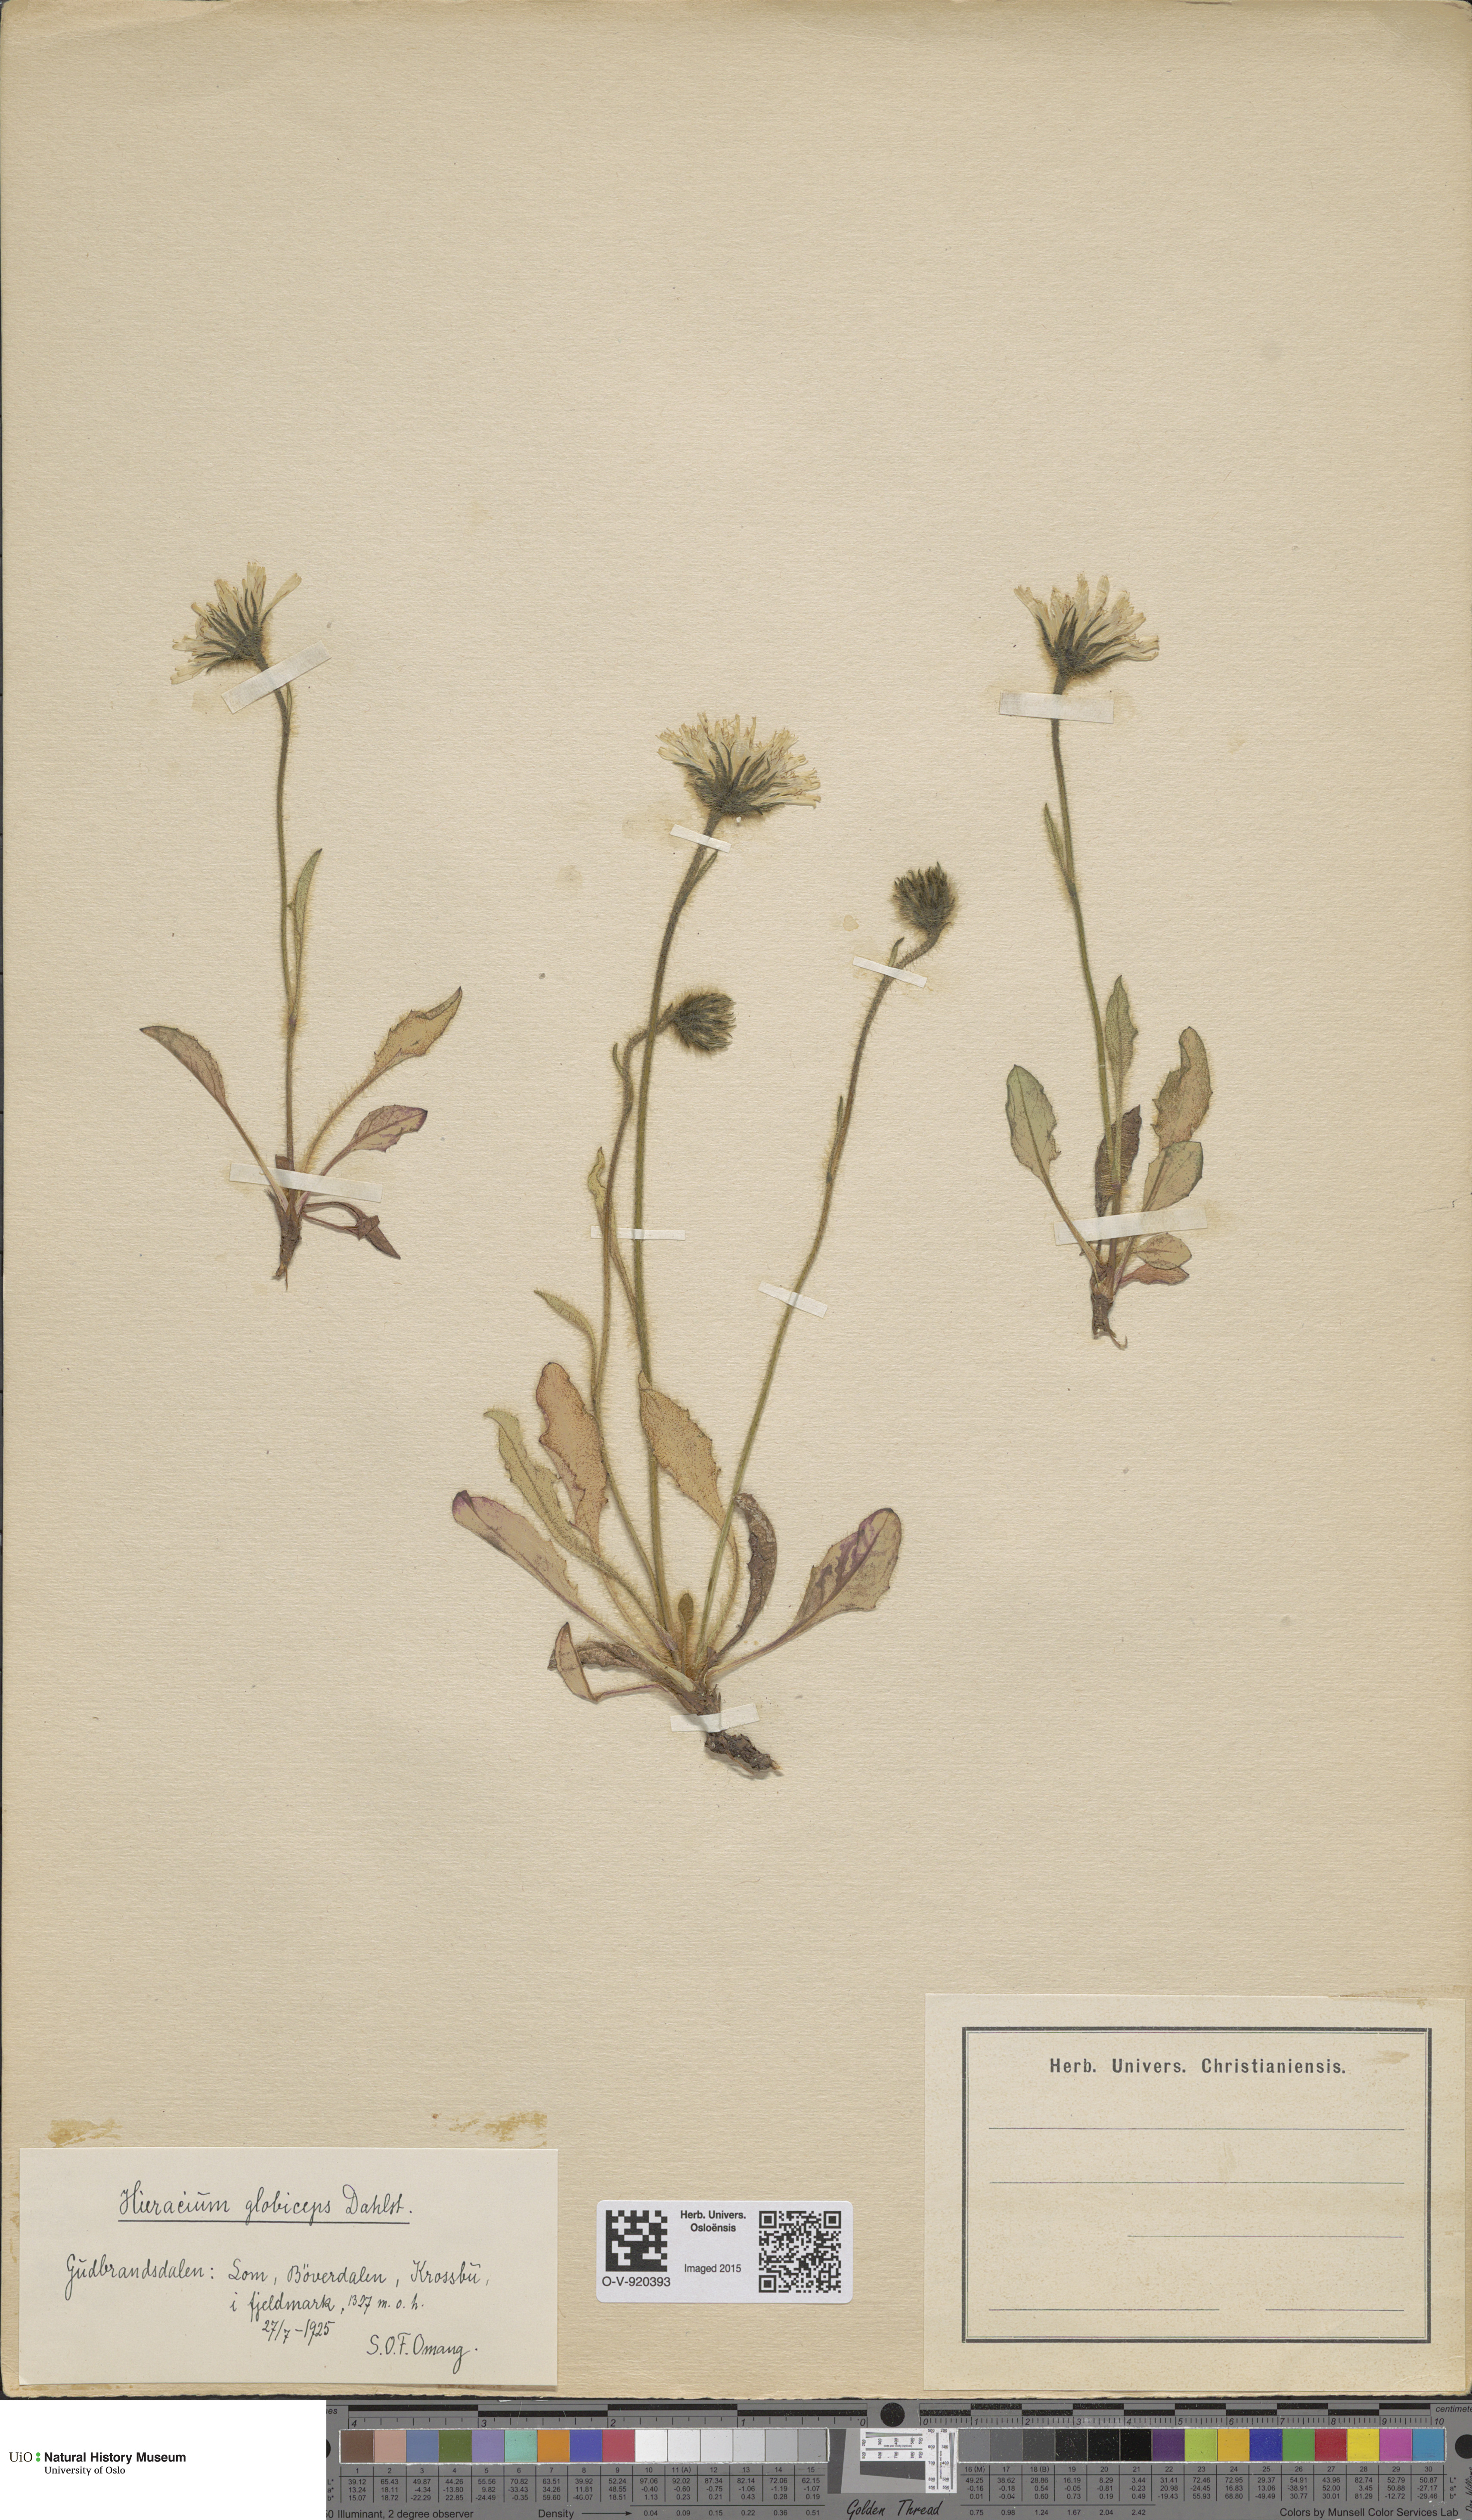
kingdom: Plantae
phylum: Tracheophyta
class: Magnoliopsida
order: Asterales
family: Asteraceae
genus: Hieracium
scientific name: Hieracium alpinum
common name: Alpine hawkweed
